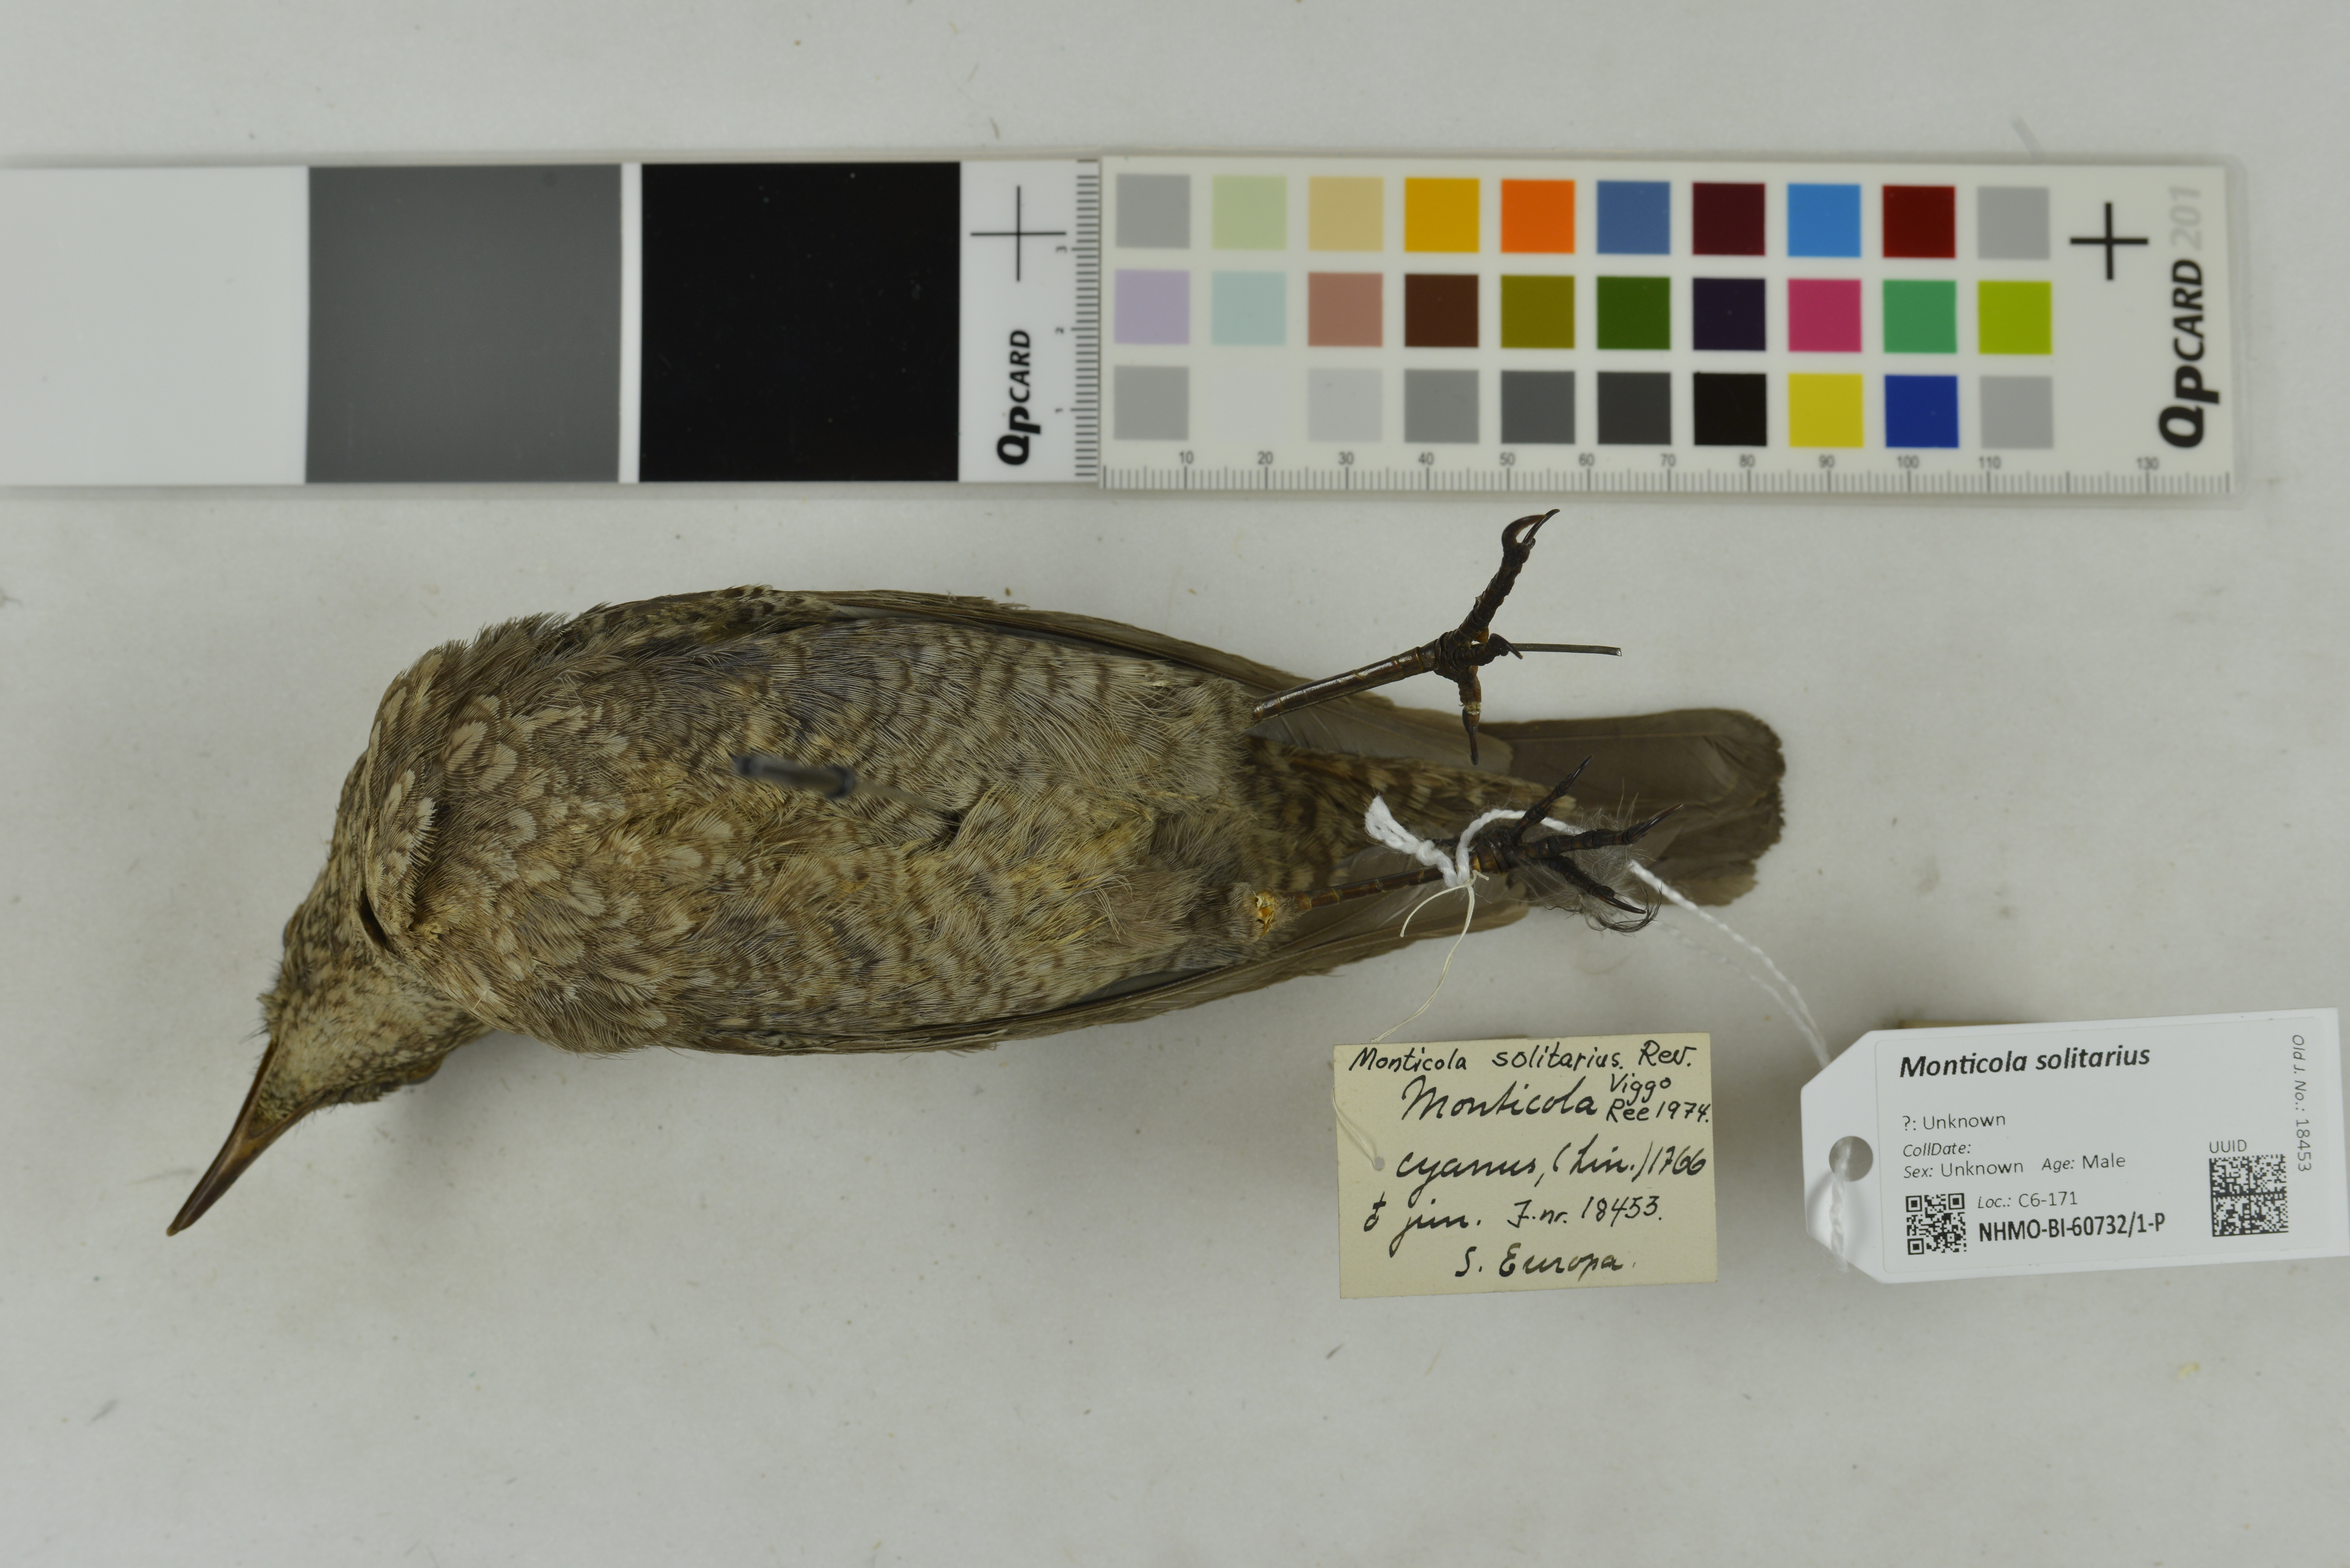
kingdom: Animalia
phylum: Chordata
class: Aves
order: Passeriformes
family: Muscicapidae
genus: Monticola
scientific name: Monticola solitarius
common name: Blue rock thrush
